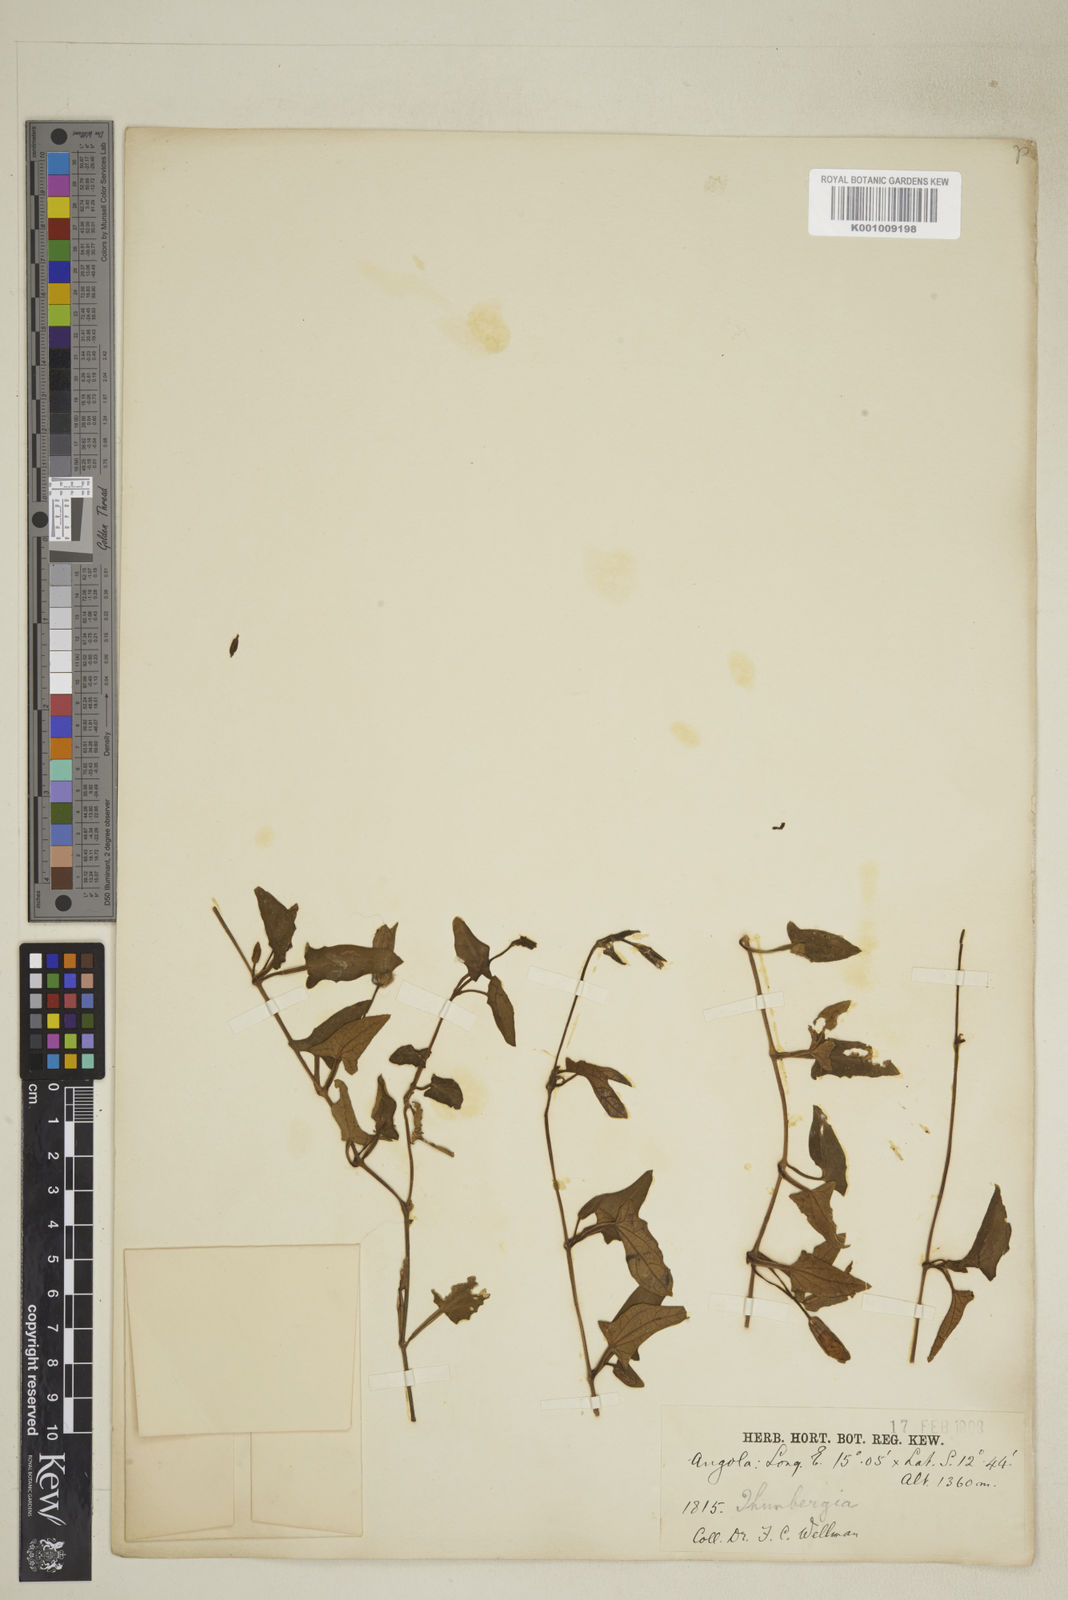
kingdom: Plantae
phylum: Tracheophyta
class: Magnoliopsida
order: Lamiales
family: Acanthaceae
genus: Thunbergia
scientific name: Thunbergia alata
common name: Blackeyed susan vine
